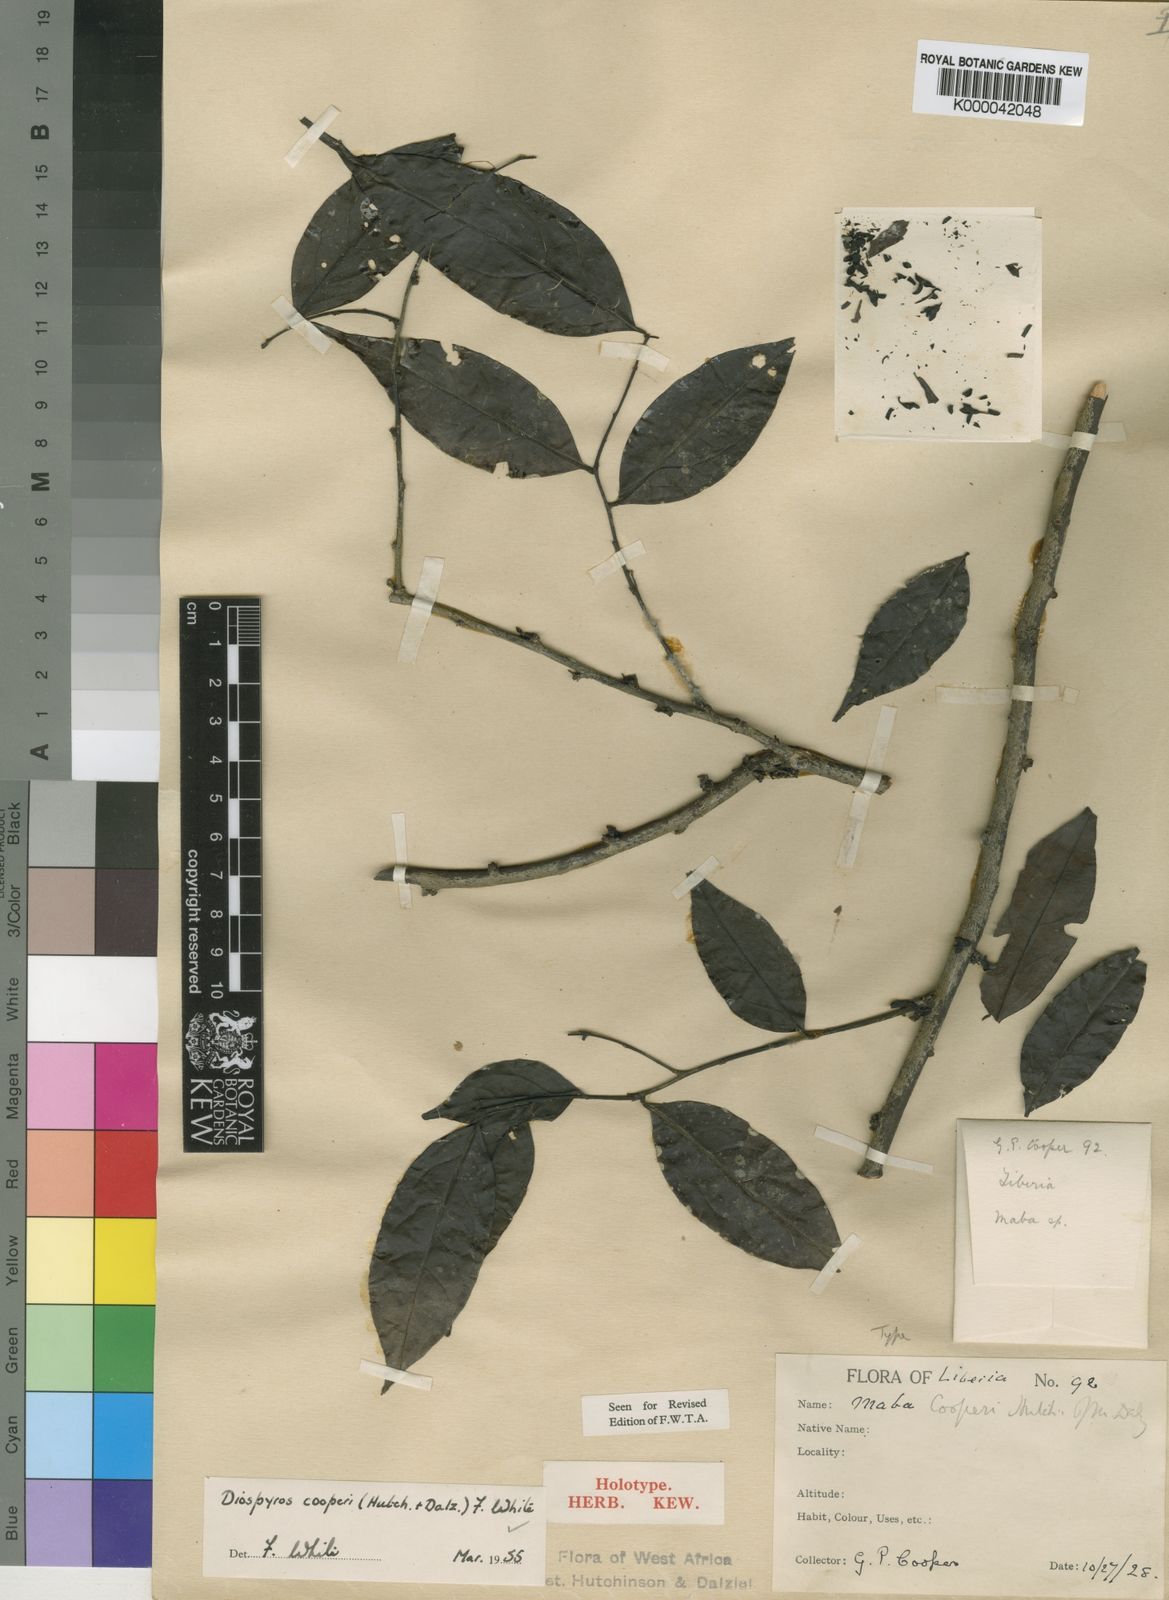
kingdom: Plantae
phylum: Tracheophyta
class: Magnoliopsida
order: Ericales
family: Ebenaceae
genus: Diospyros
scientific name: Diospyros cooperi
